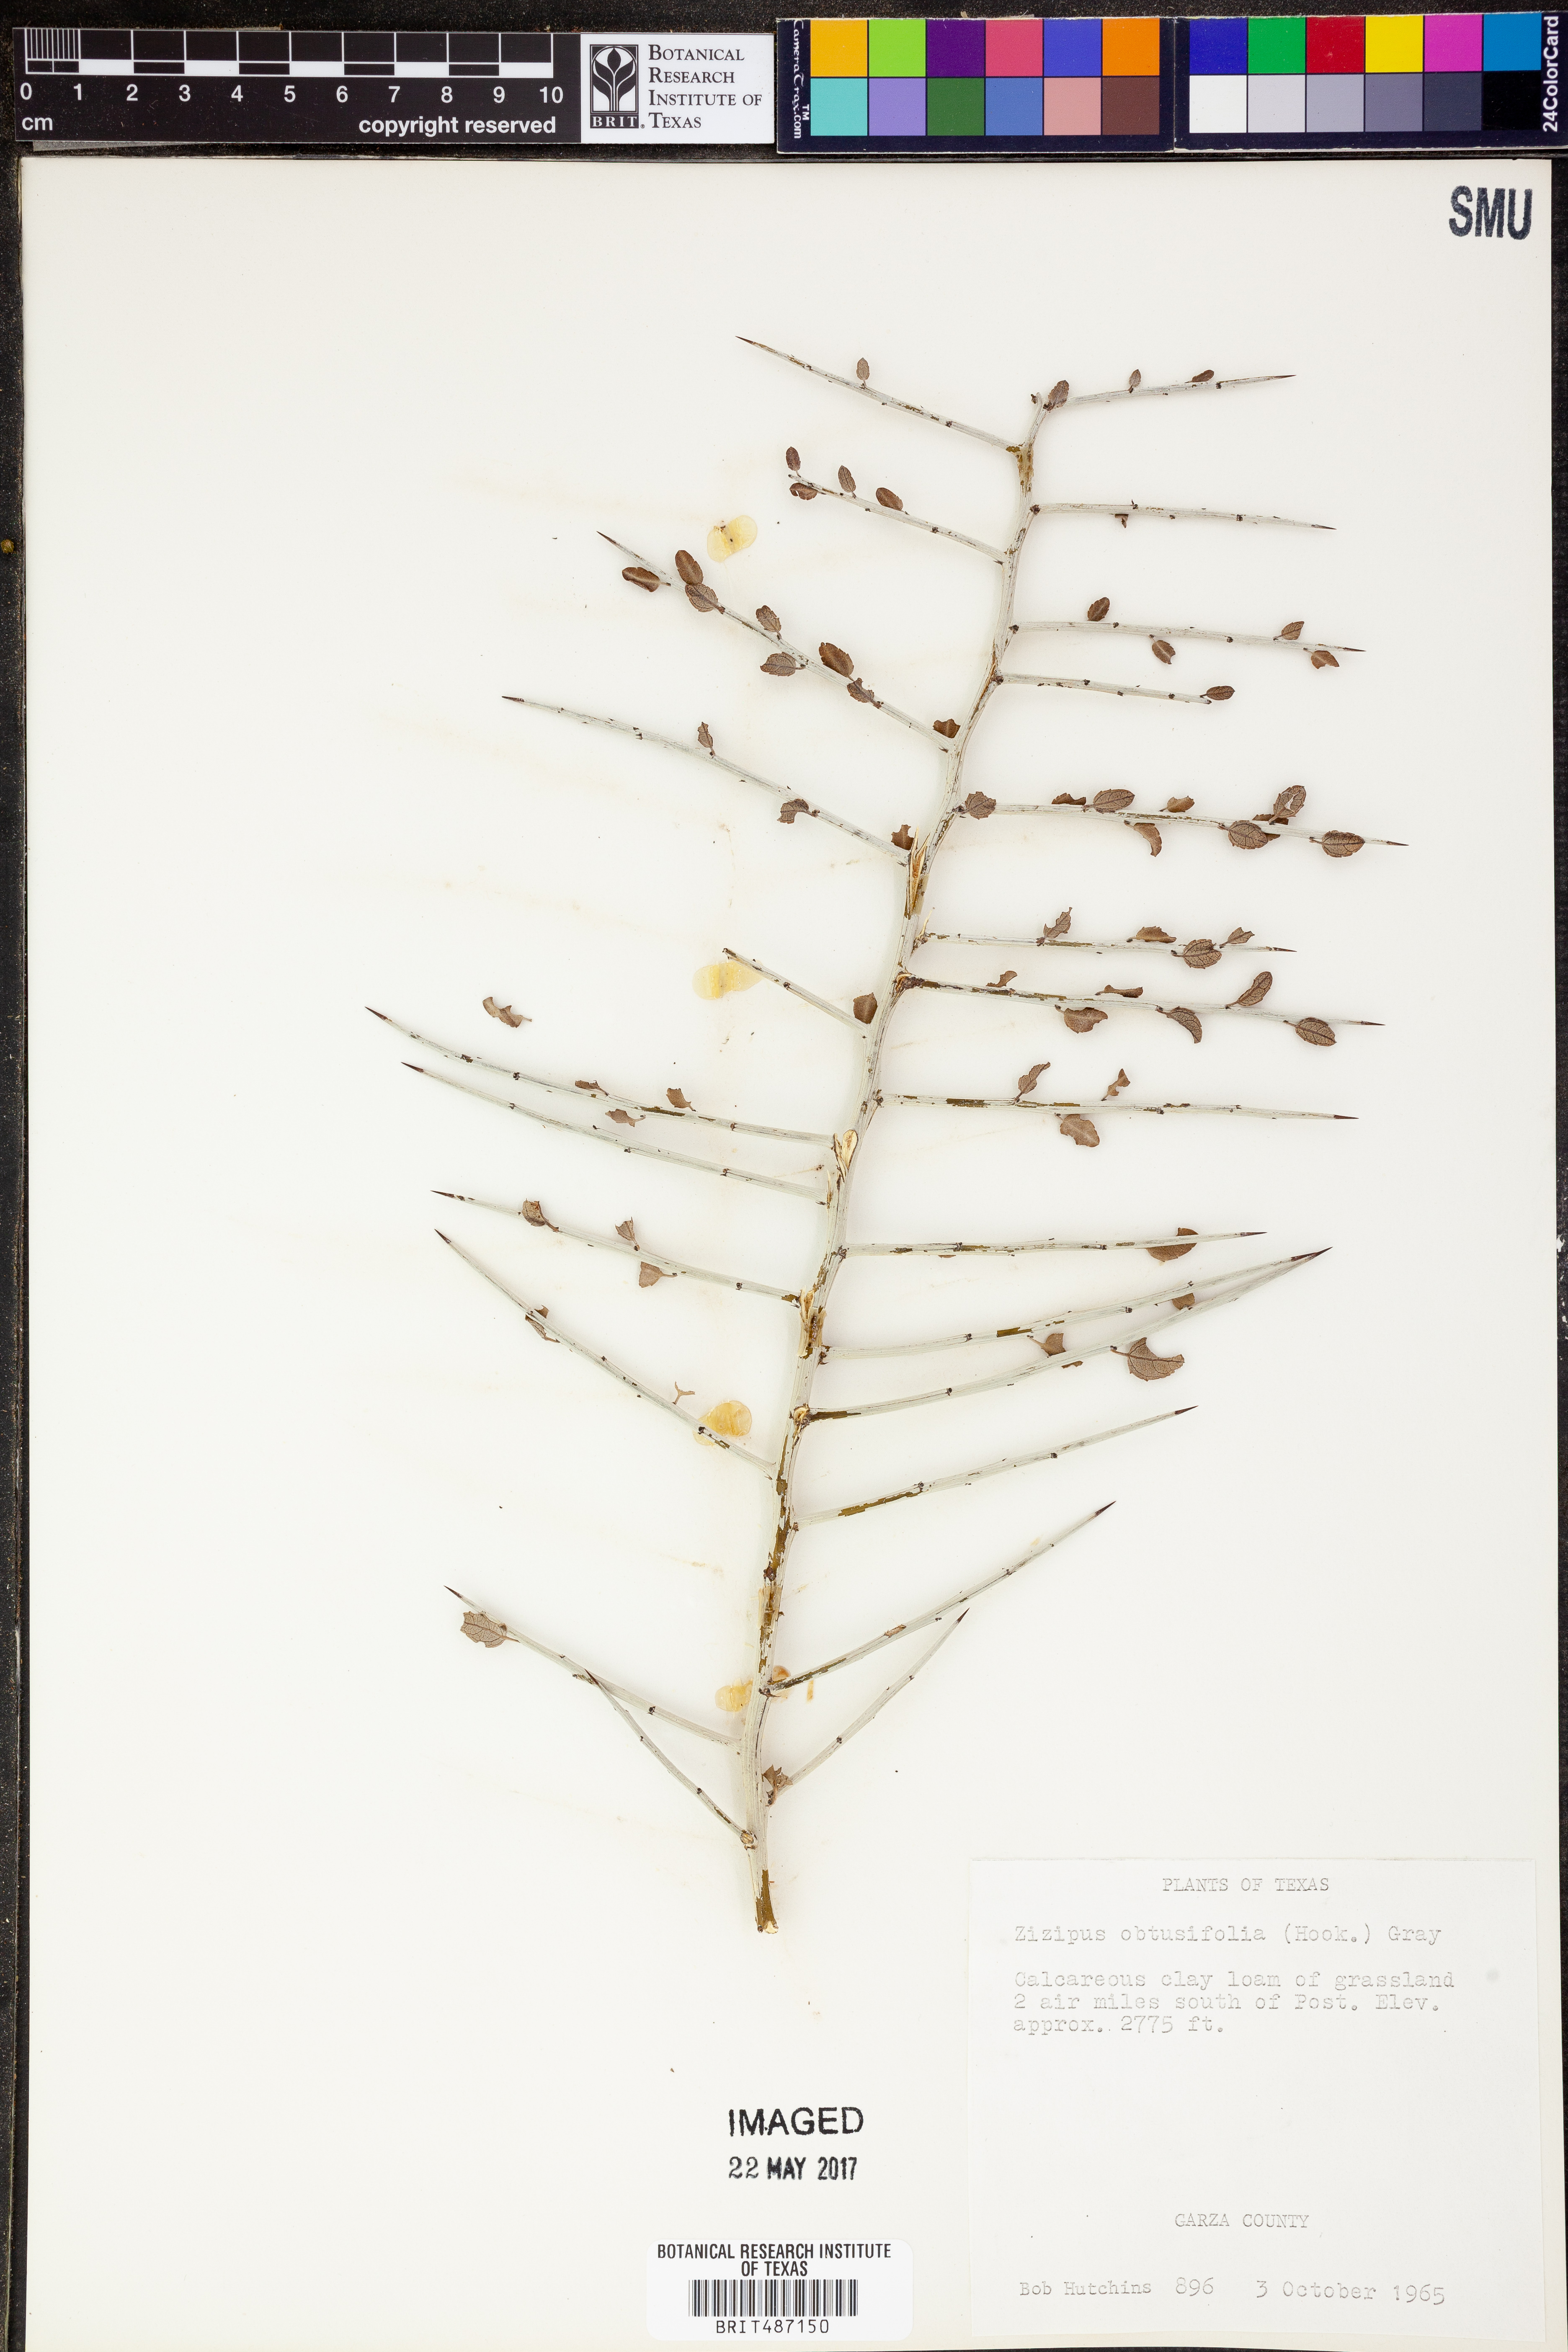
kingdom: Plantae
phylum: Tracheophyta
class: Magnoliopsida
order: Rosales
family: Rhamnaceae
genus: Sarcomphalus
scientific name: Sarcomphalus obtusifolius
